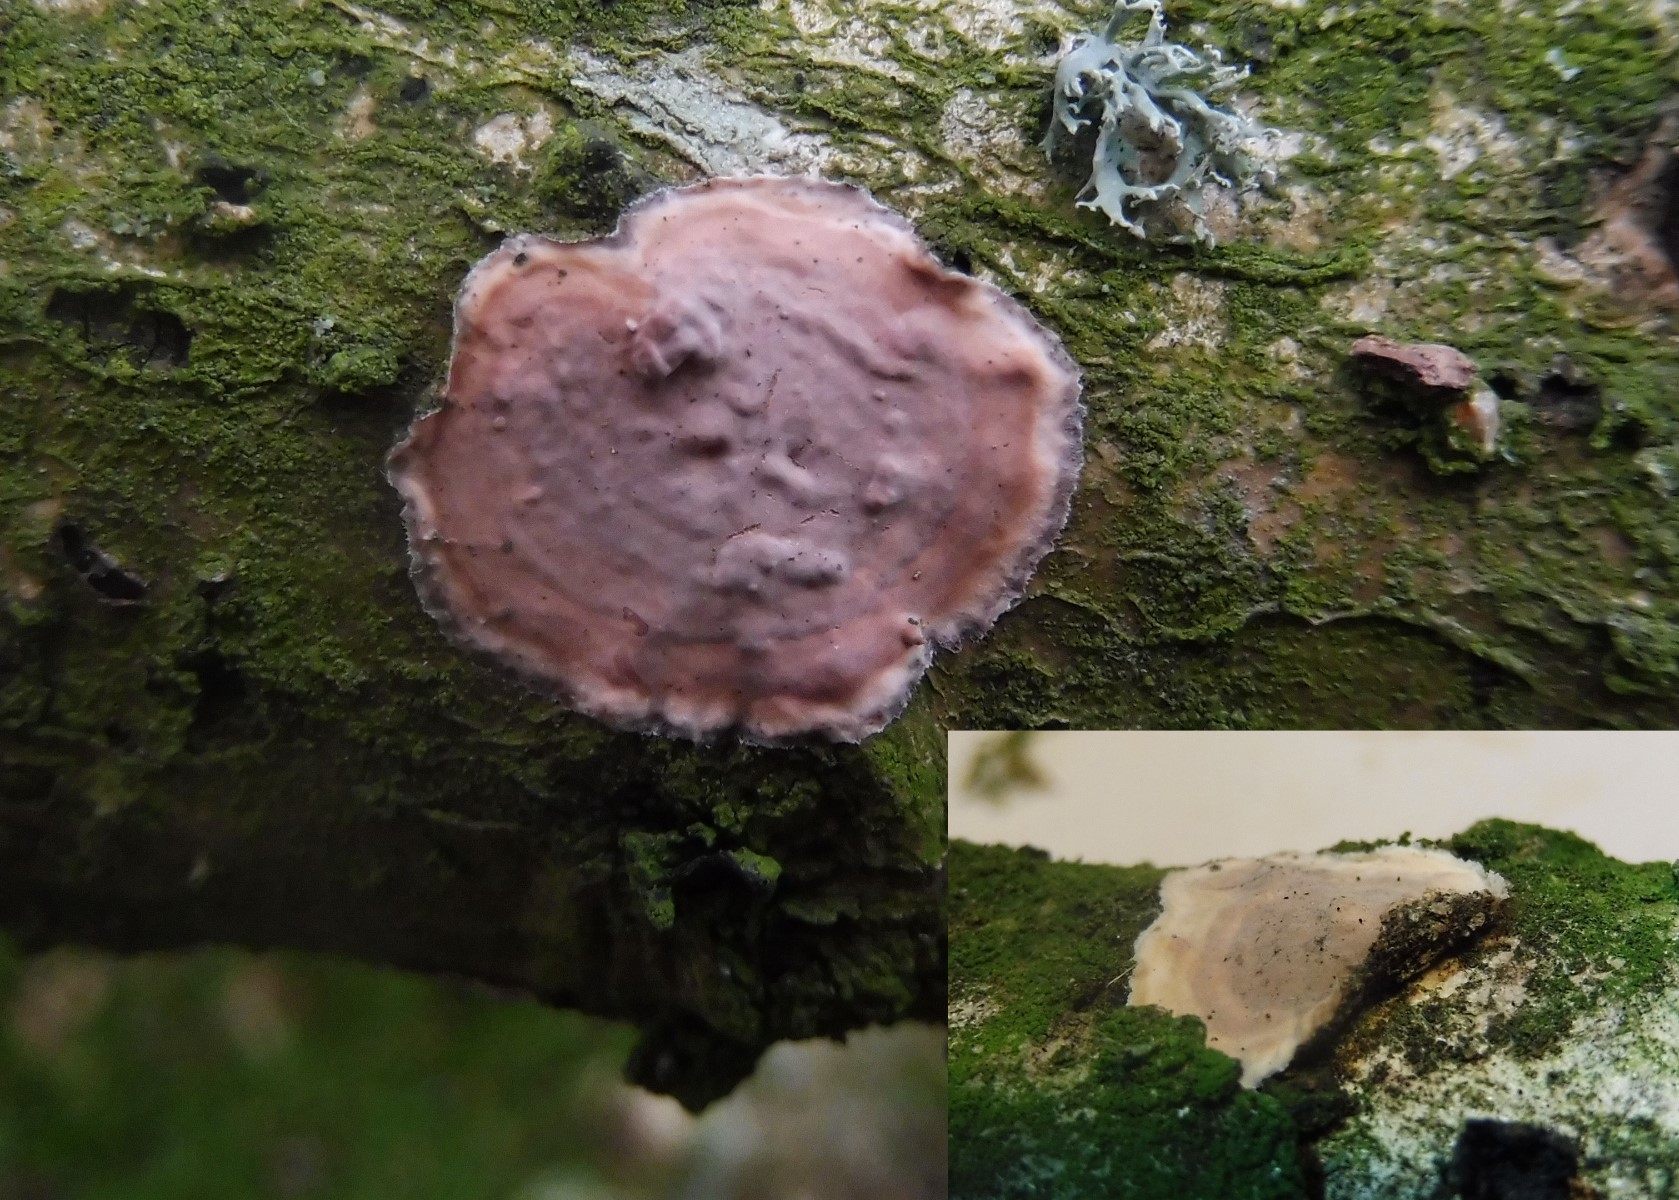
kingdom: Fungi
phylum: Basidiomycota
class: Agaricomycetes
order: Russulales
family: Peniophoraceae
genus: Peniophora
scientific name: Peniophora quercina
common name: ege-voksskind
